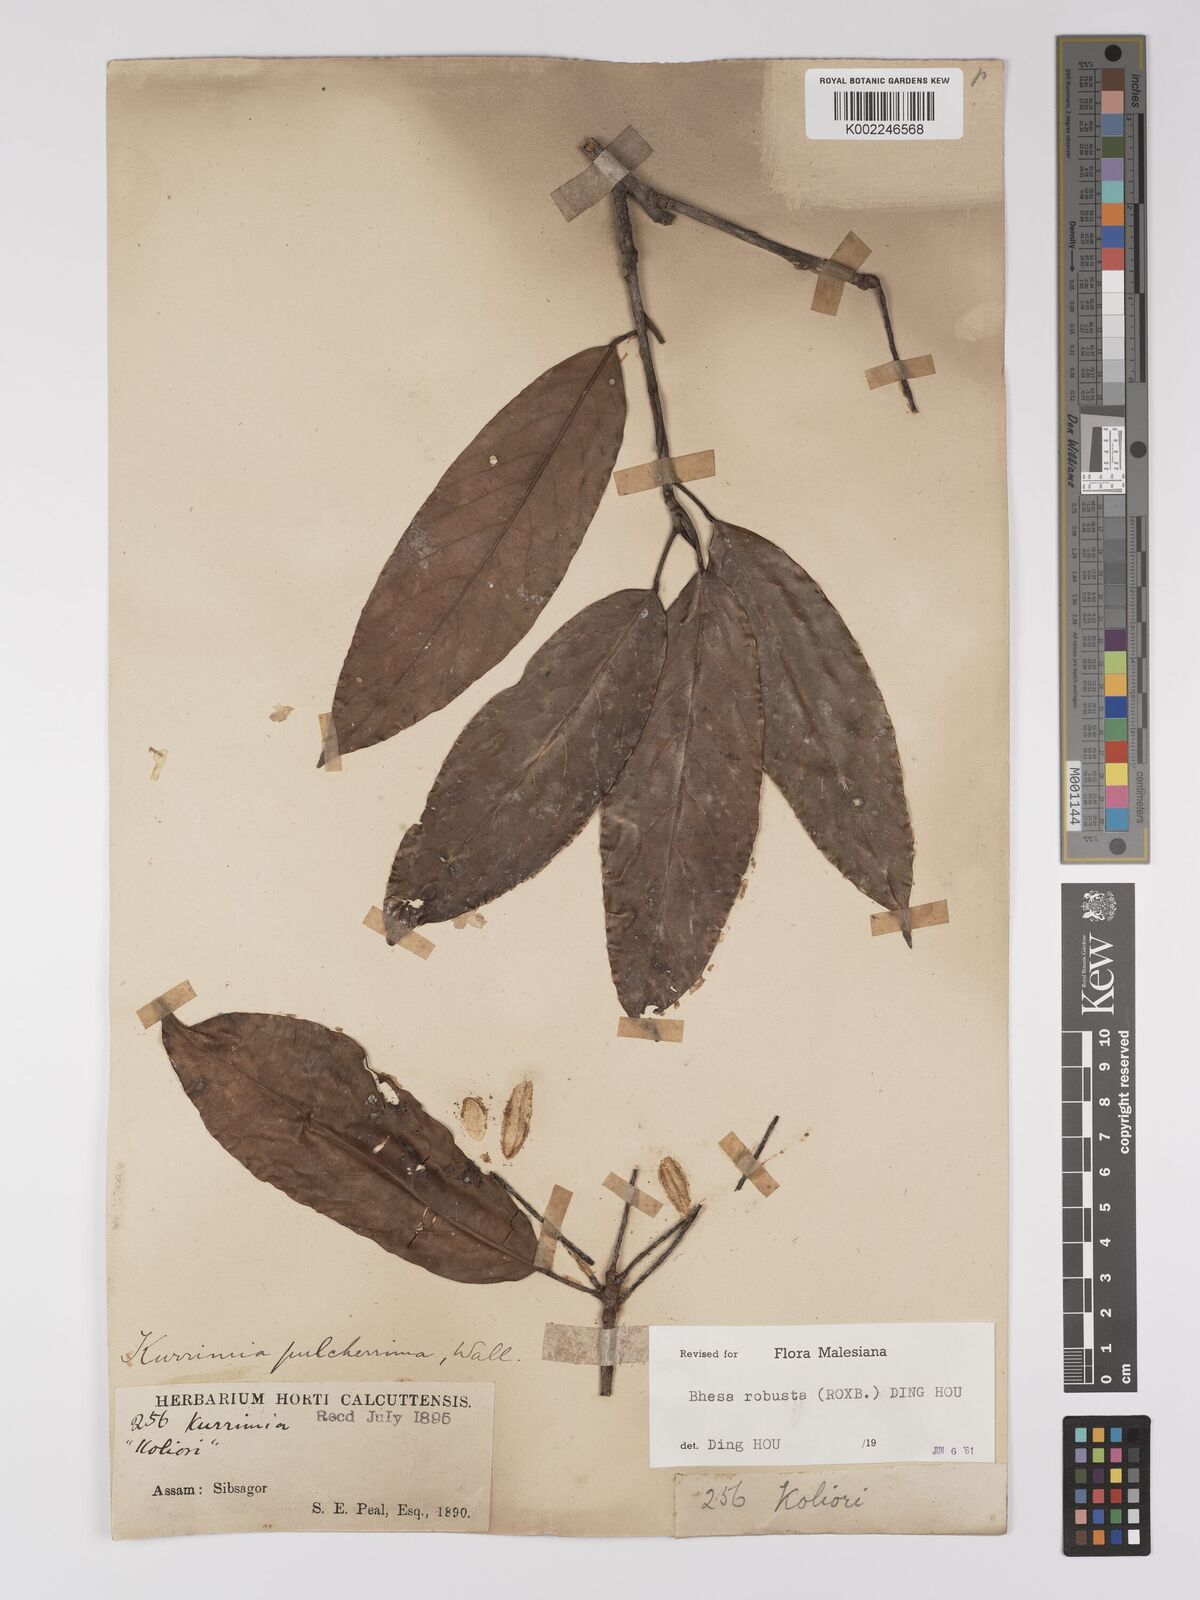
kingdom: Plantae
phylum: Tracheophyta
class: Magnoliopsida
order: Malpighiales
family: Centroplacaceae
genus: Bhesa
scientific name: Bhesa robusta
